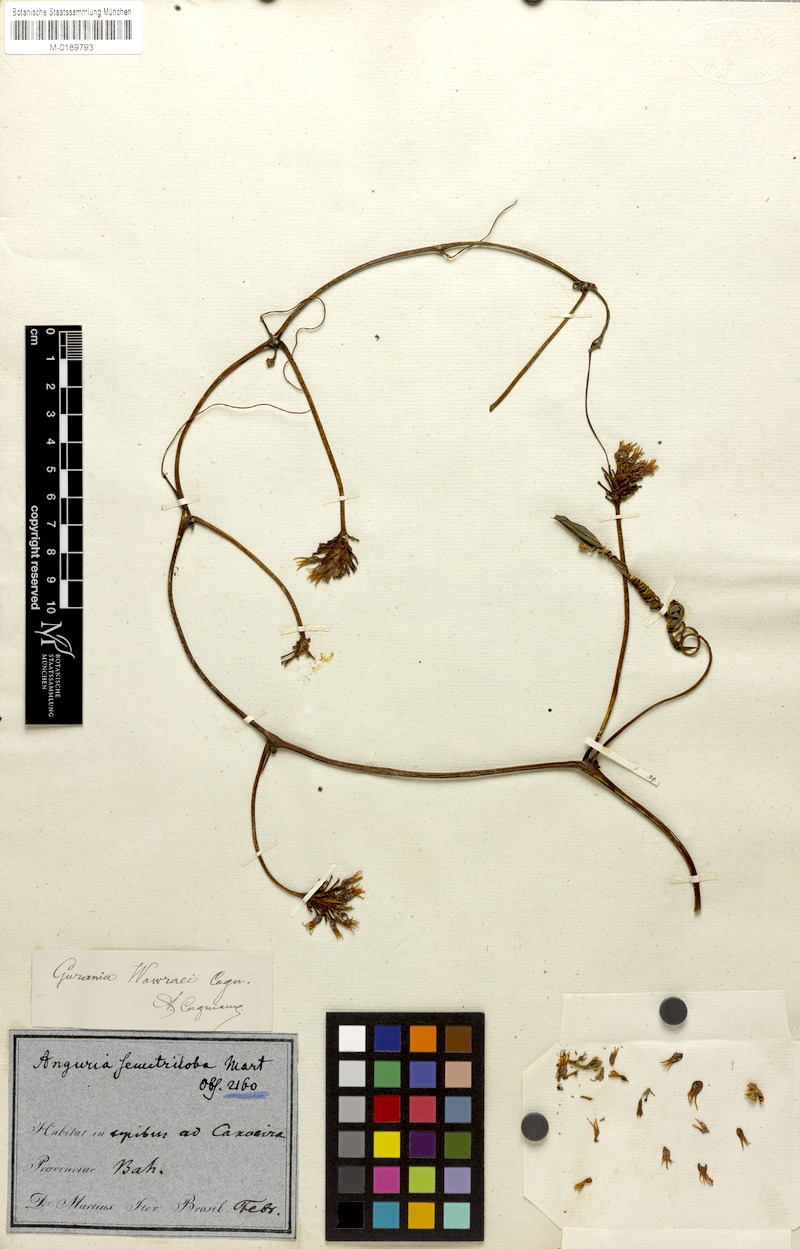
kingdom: Plantae
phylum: Tracheophyta
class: Magnoliopsida
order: Cucurbitales
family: Cucurbitaceae
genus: Gurania
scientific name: Gurania wawrae
